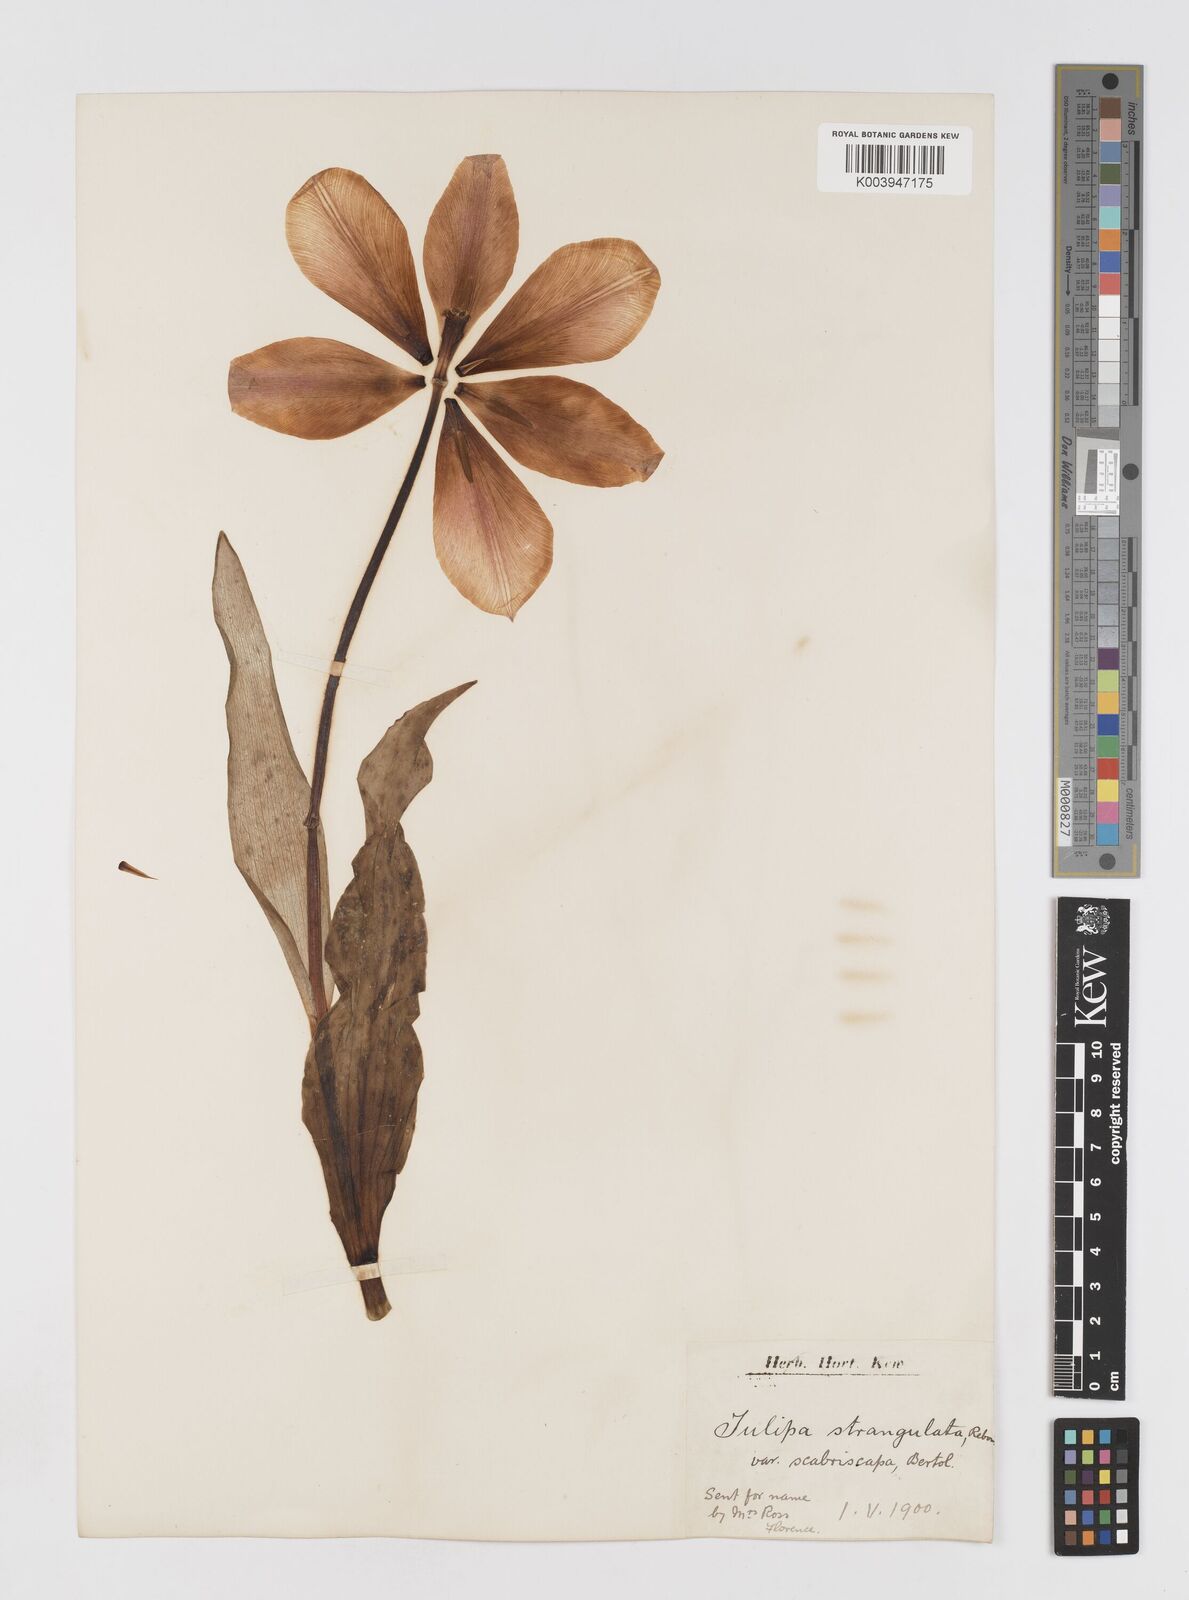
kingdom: Plantae
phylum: Tracheophyta
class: Liliopsida
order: Liliales
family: Liliaceae
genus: Tulipa
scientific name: Tulipa gesneriana
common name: Garden tulip
